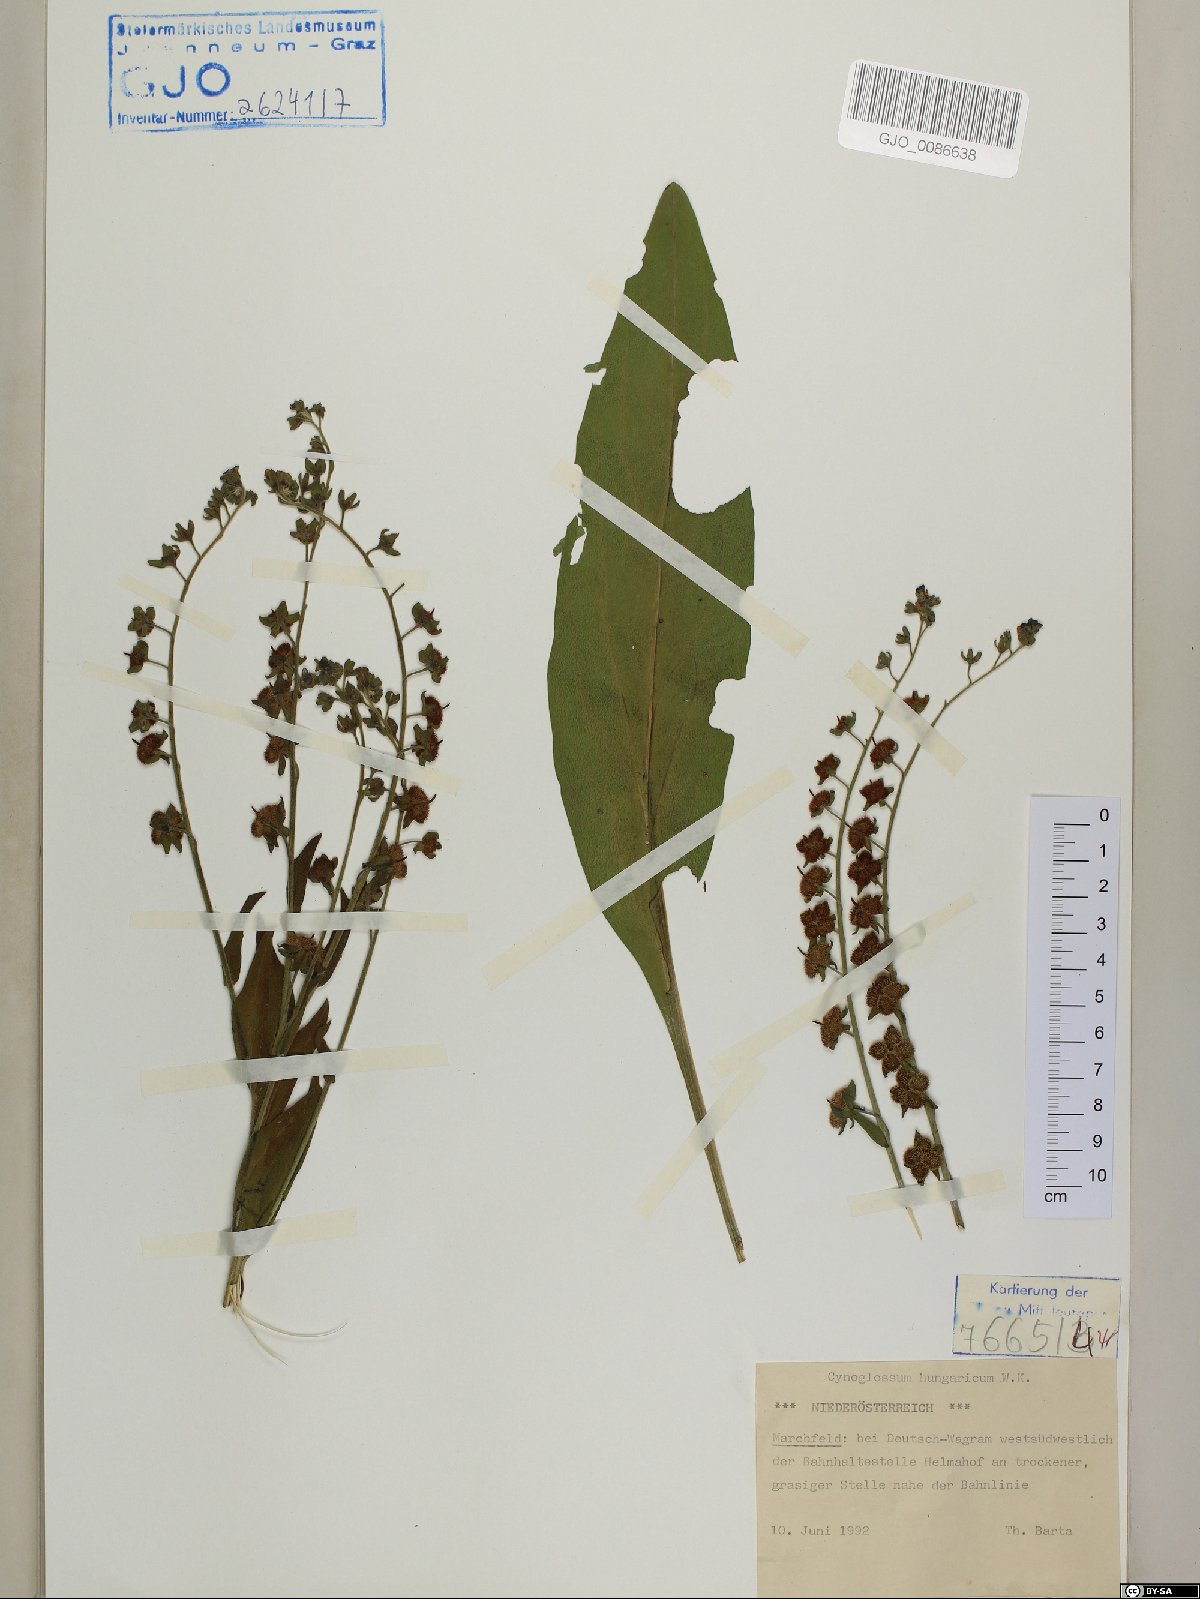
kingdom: Plantae
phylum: Tracheophyta
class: Magnoliopsida
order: Boraginales
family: Boraginaceae
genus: Cynoglossum
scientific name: Cynoglossum montanum
